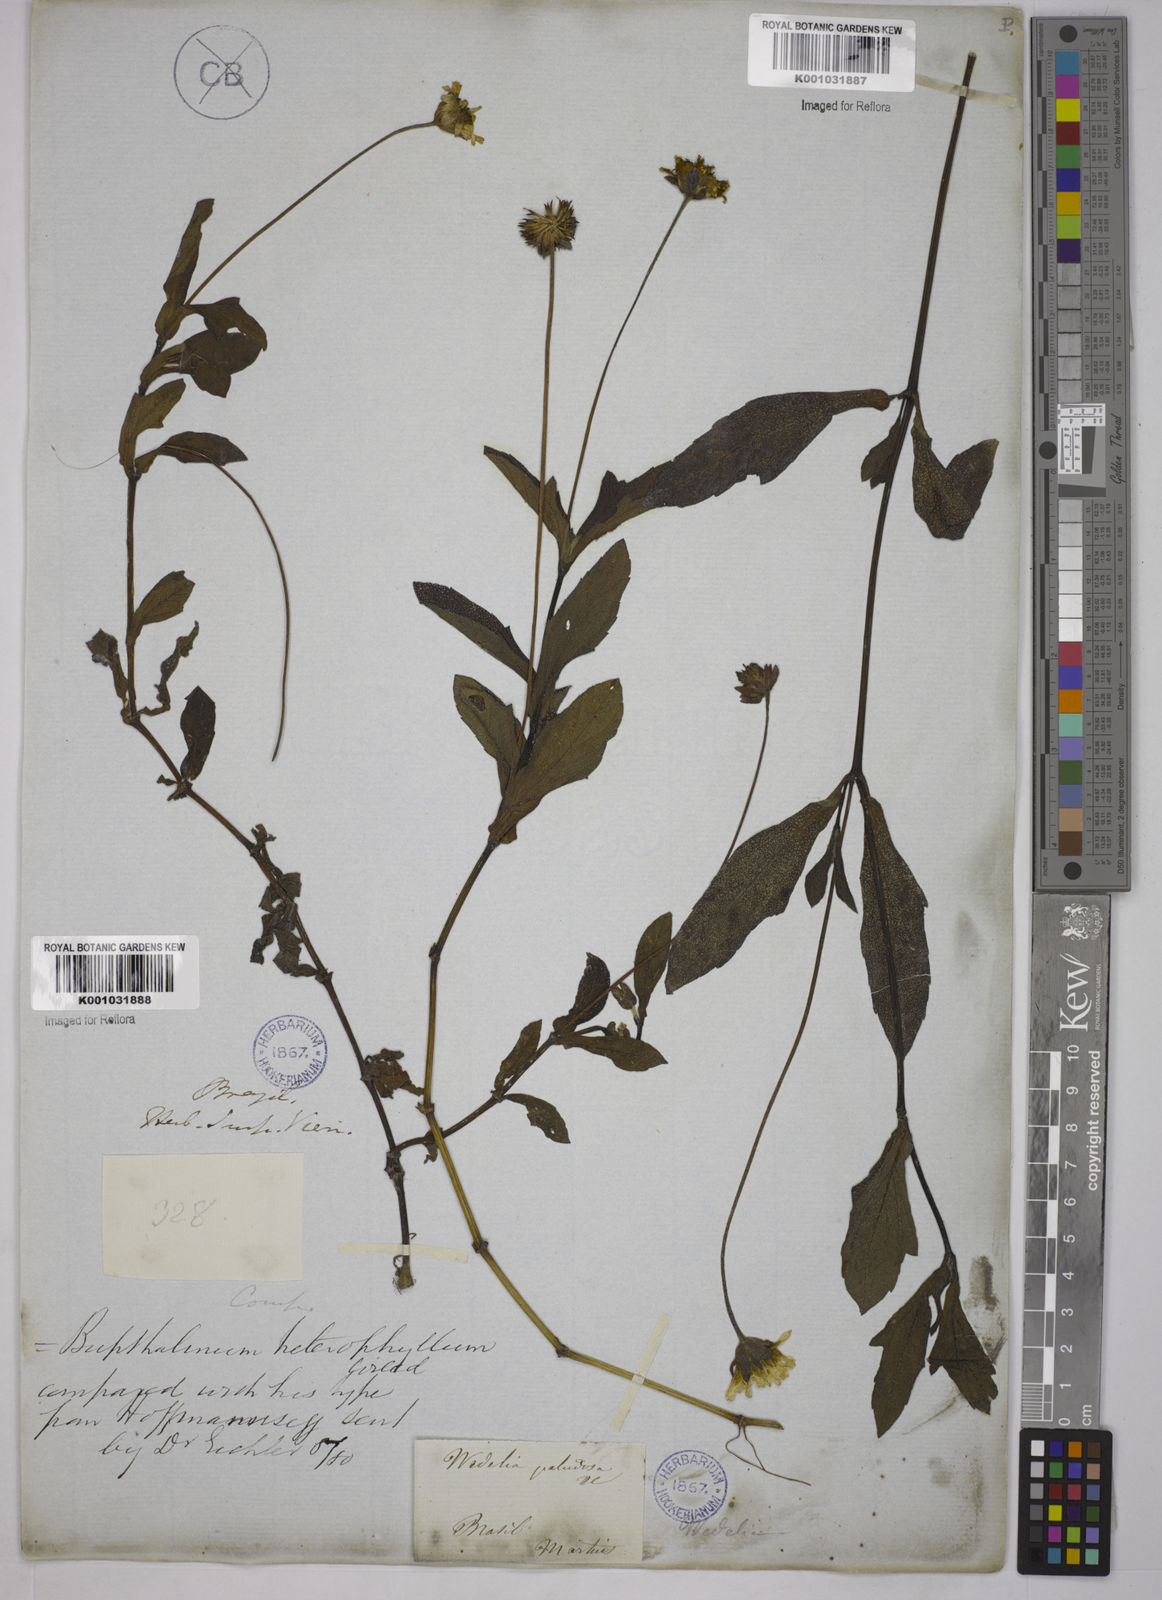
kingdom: Plantae
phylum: Tracheophyta
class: Magnoliopsida
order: Asterales
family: Asteraceae
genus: Zaluzania
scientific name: Zaluzania triloba
